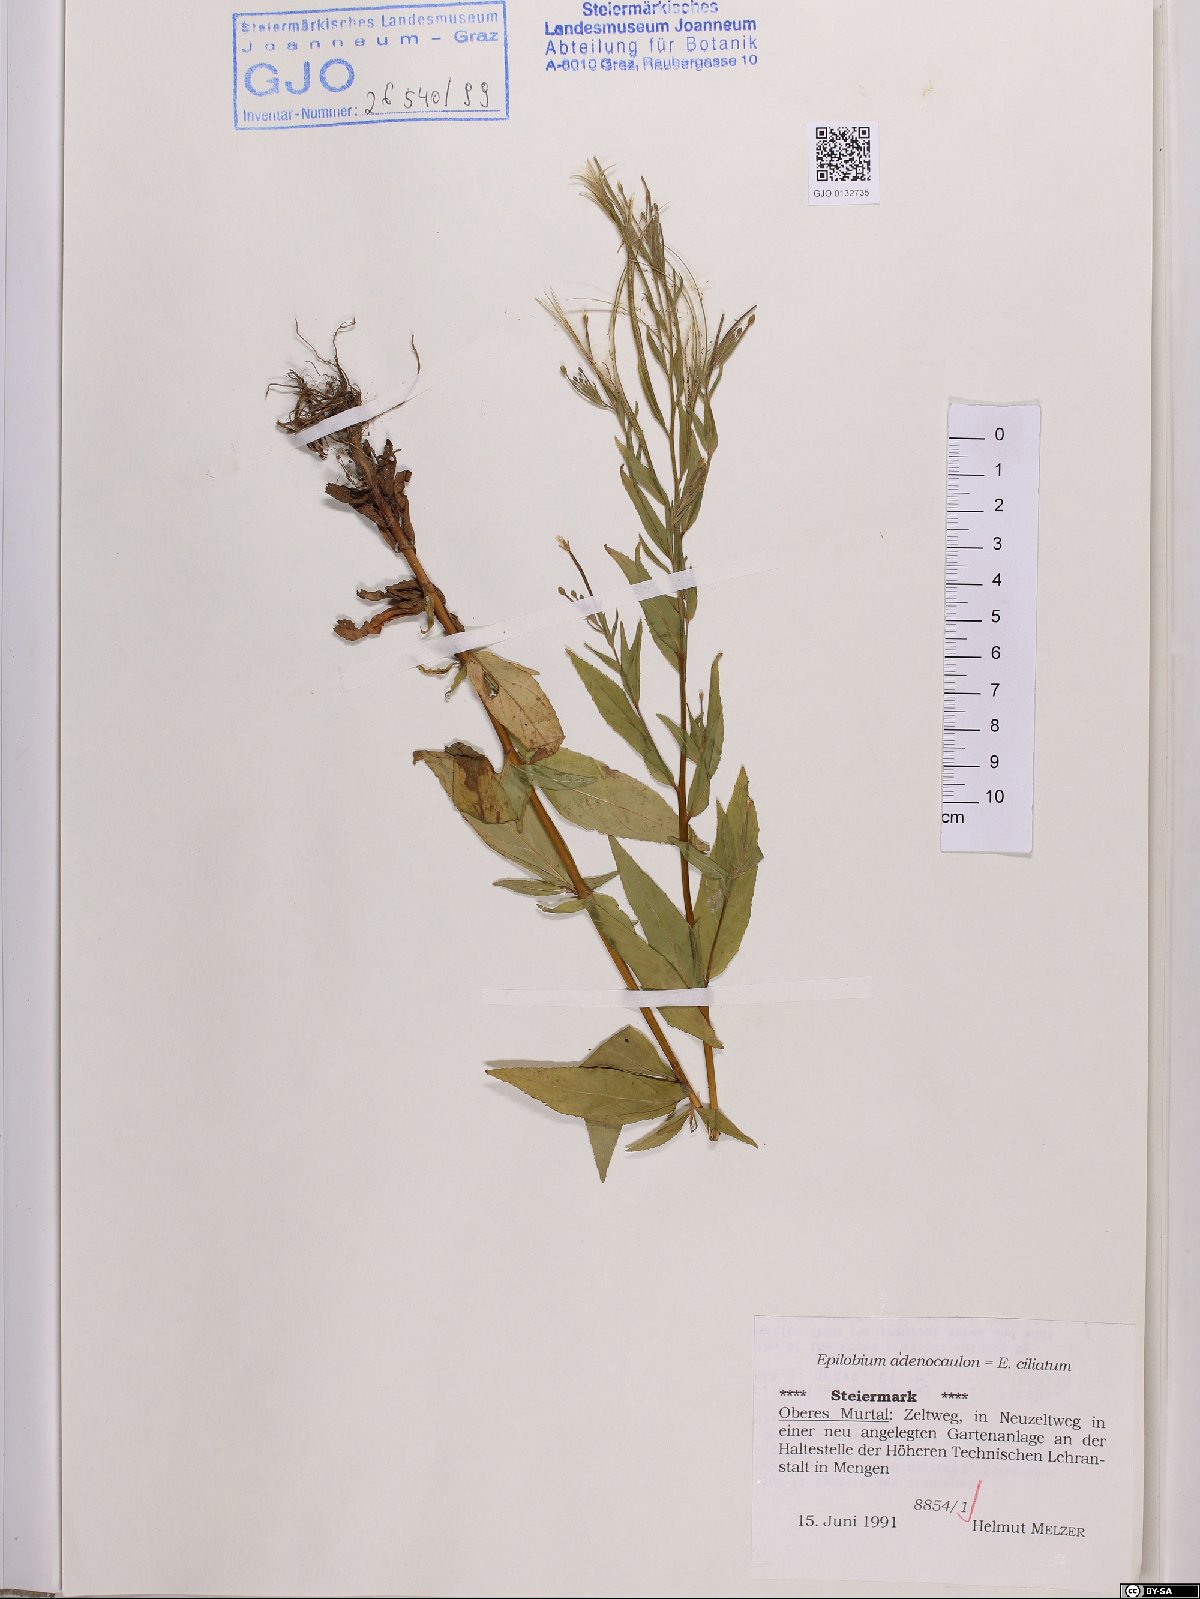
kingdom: Plantae
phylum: Tracheophyta
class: Magnoliopsida
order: Myrtales
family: Onagraceae
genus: Epilobium
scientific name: Epilobium ciliatum
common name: American willowherb
